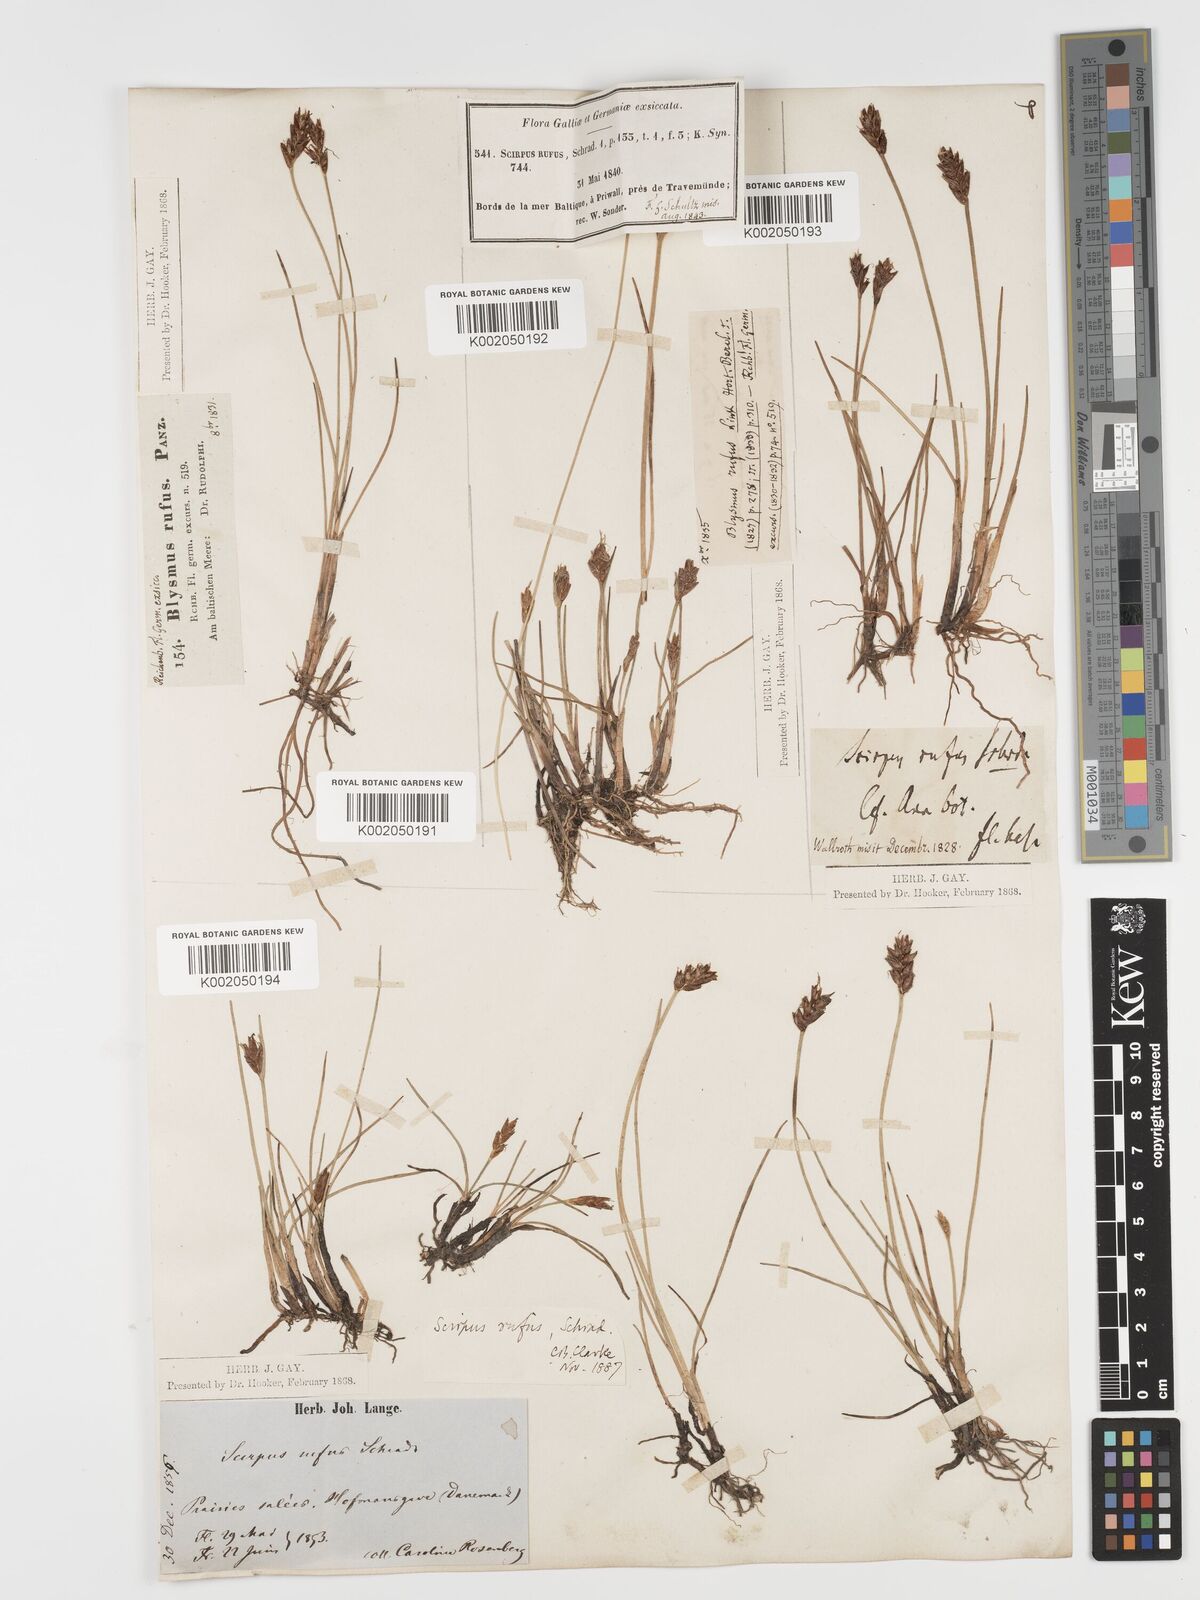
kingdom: Plantae
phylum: Tracheophyta
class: Liliopsida
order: Poales
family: Cyperaceae
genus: Blysmus
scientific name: Blysmus rufus
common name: Saltmarsh flat-sedge
